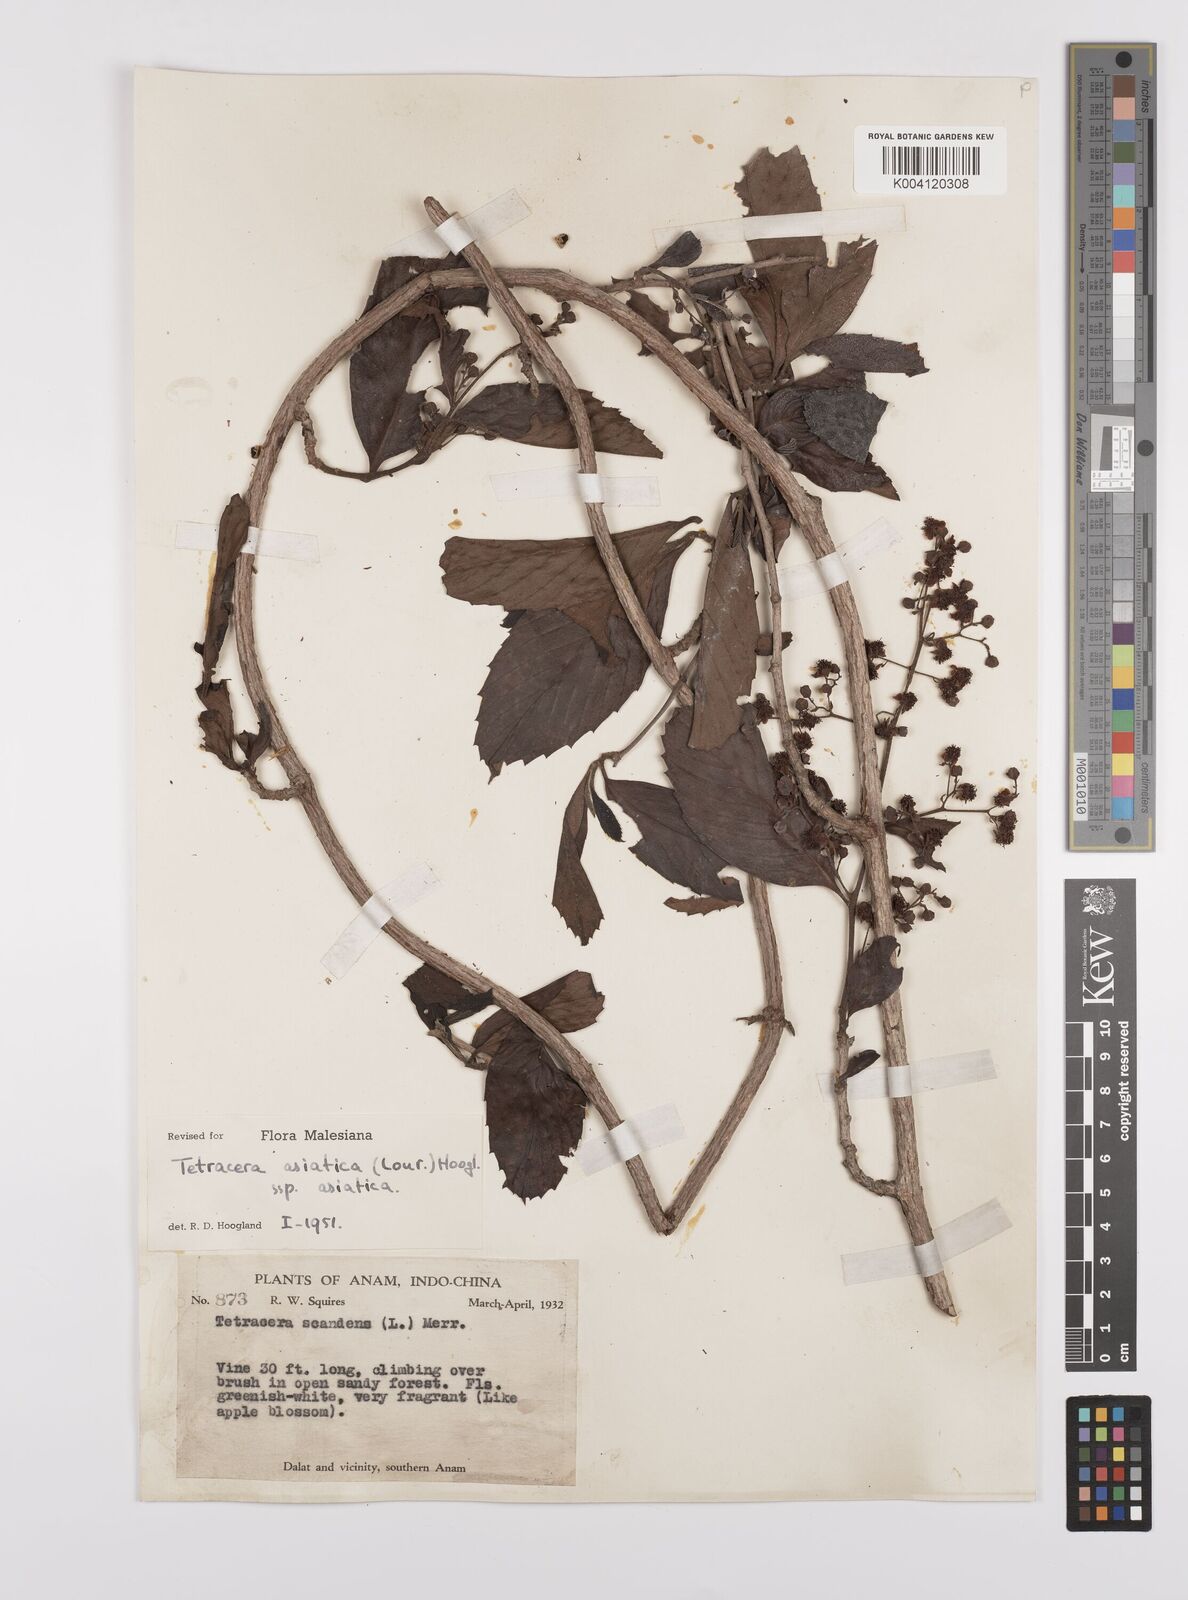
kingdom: Plantae
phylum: Tracheophyta
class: Magnoliopsida
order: Dilleniales
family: Dilleniaceae
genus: Tetracera
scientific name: Tetracera sarmentosa
